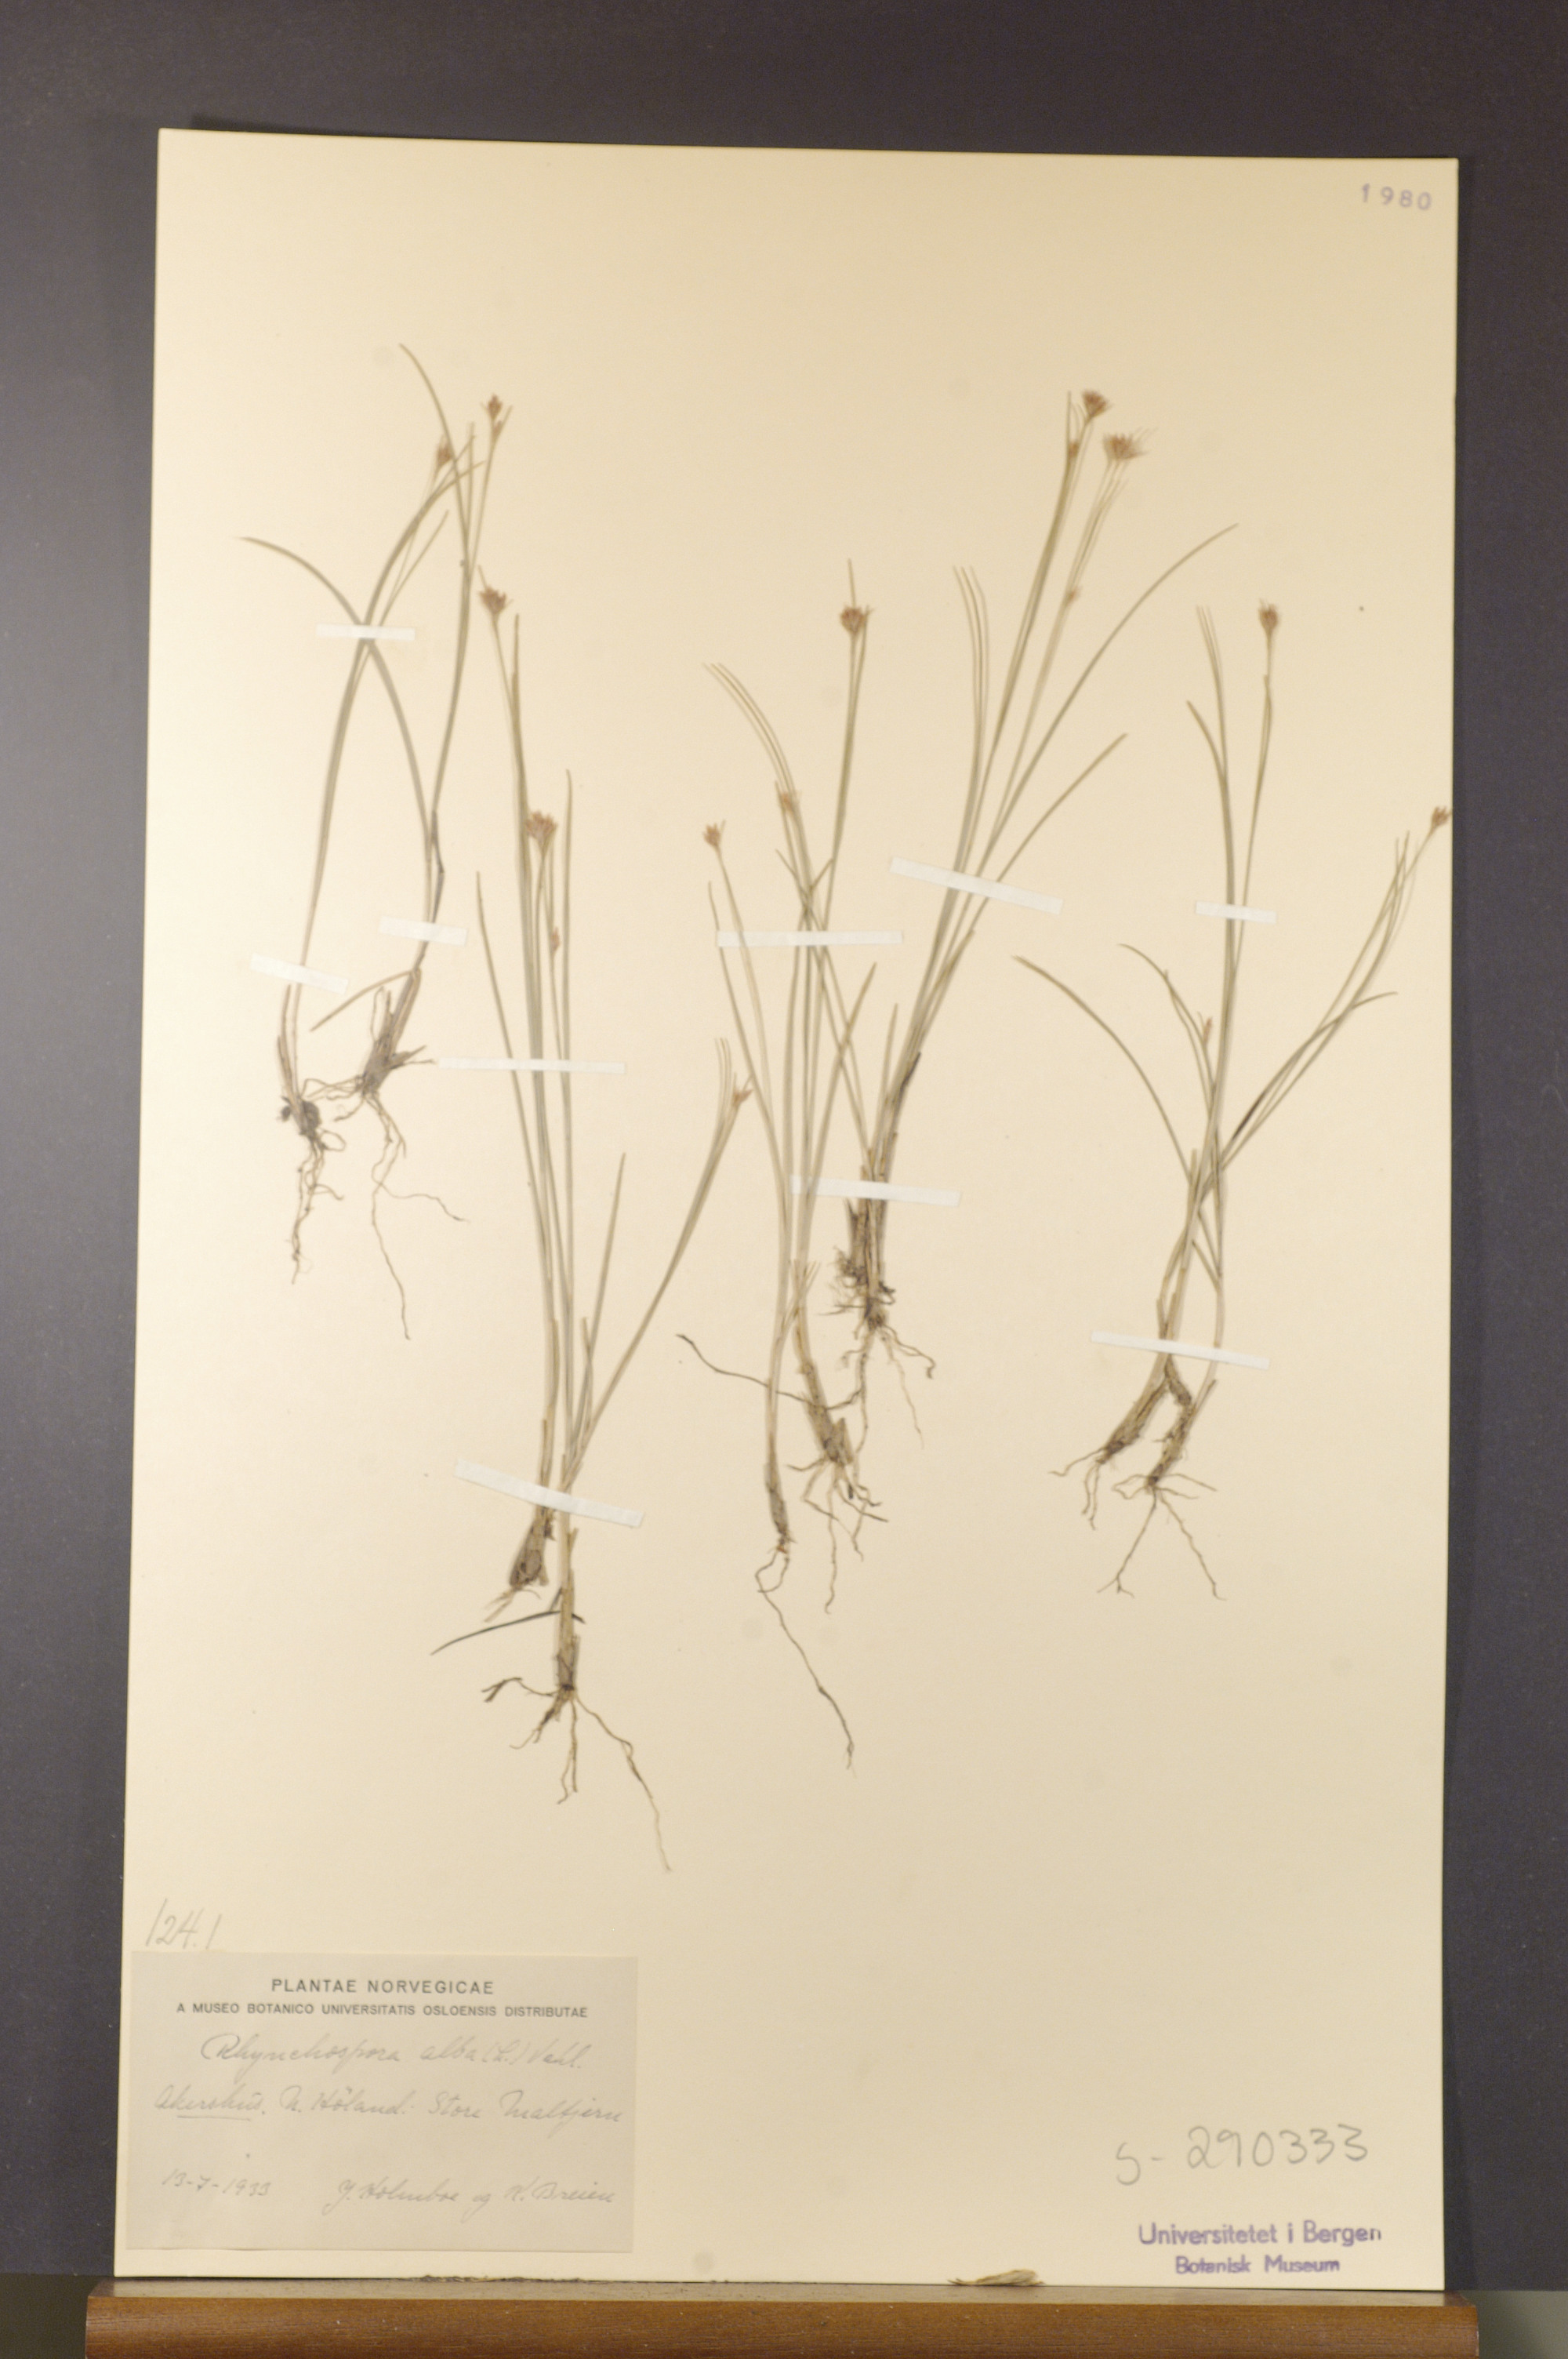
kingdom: Plantae
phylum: Tracheophyta
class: Liliopsida
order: Poales
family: Cyperaceae
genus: Rhynchospora
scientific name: Rhynchospora alba
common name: White beak-sedge
